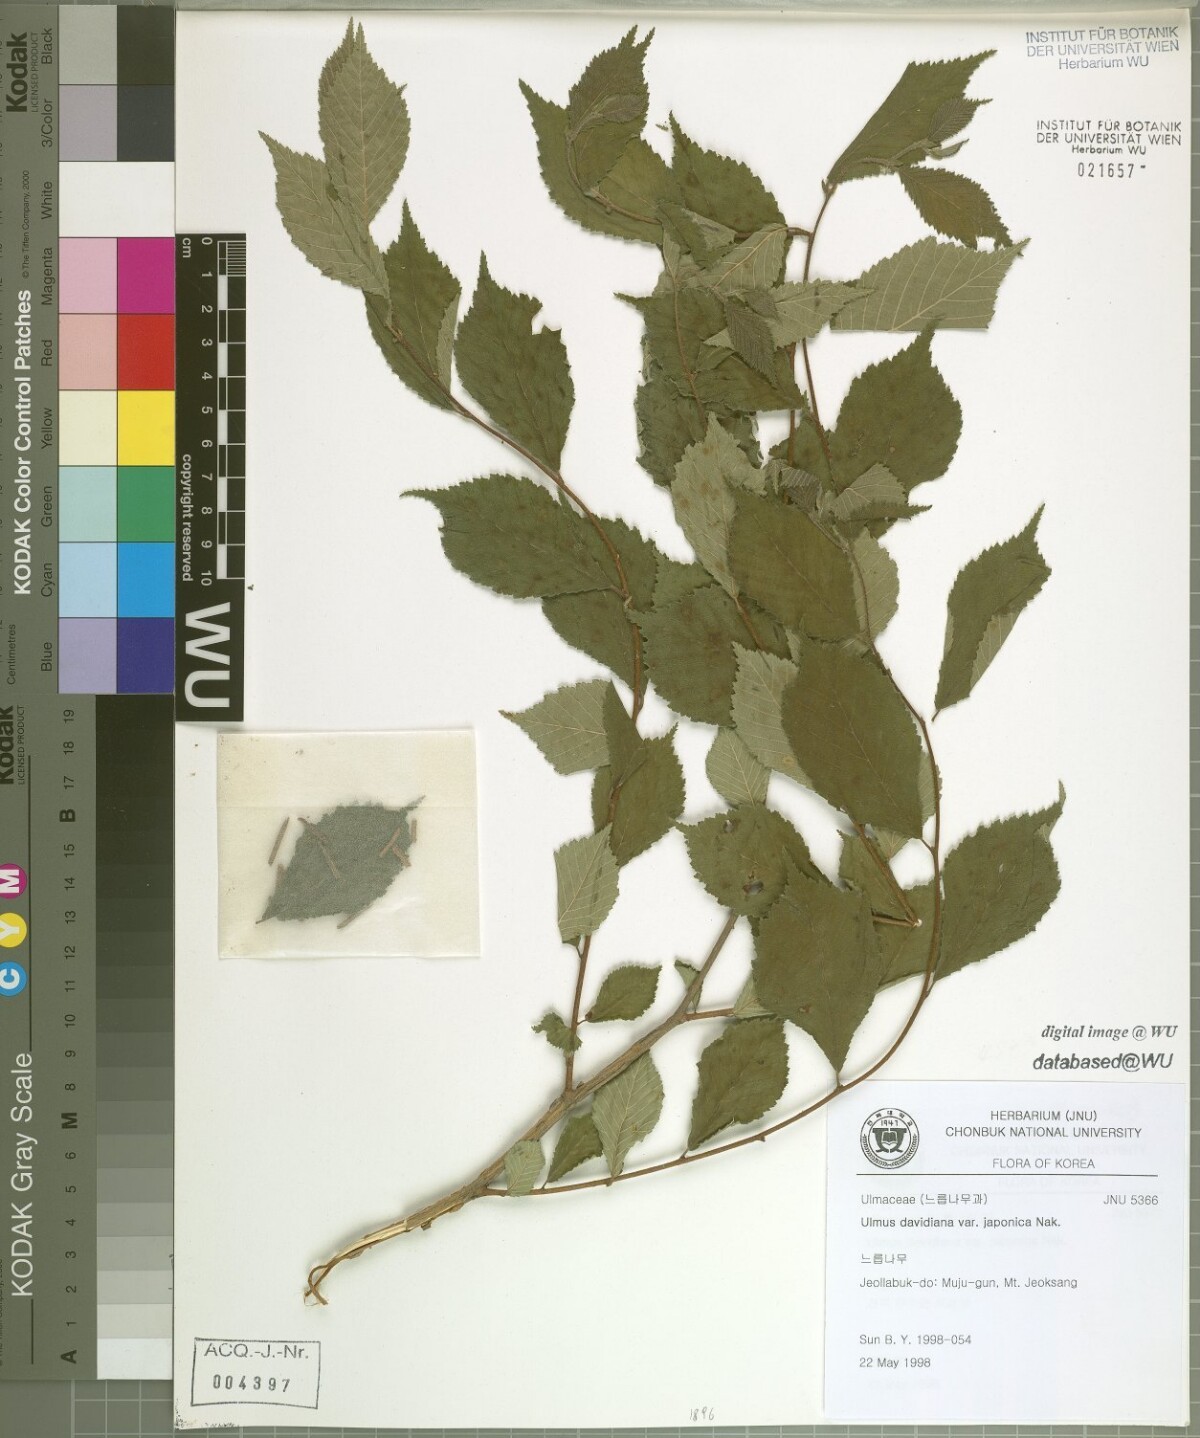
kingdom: Plantae
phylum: Tracheophyta
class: Magnoliopsida
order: Rosales
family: Ulmaceae
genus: Ulmus
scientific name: Ulmus davidiana
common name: Japanese elm
